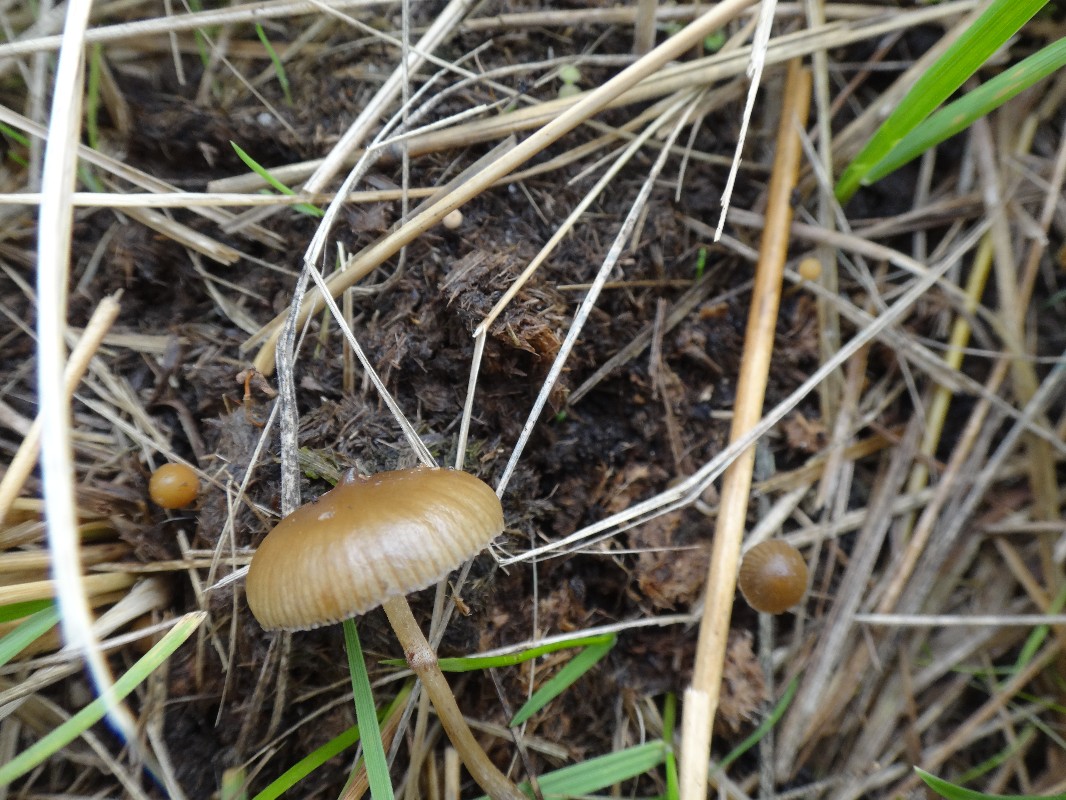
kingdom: Fungi
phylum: Basidiomycota
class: Agaricomycetes
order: Agaricales
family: Hymenogastraceae
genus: Psilocybe
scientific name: Psilocybe fimetaria
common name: prægtig nøgenhat
